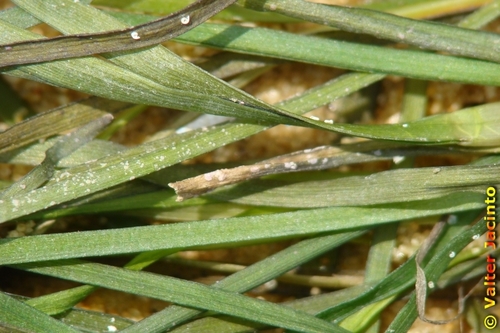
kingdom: Plantae
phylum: Tracheophyta
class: Liliopsida
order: Alismatales
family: Zosteraceae
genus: Zostera
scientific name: Zostera
